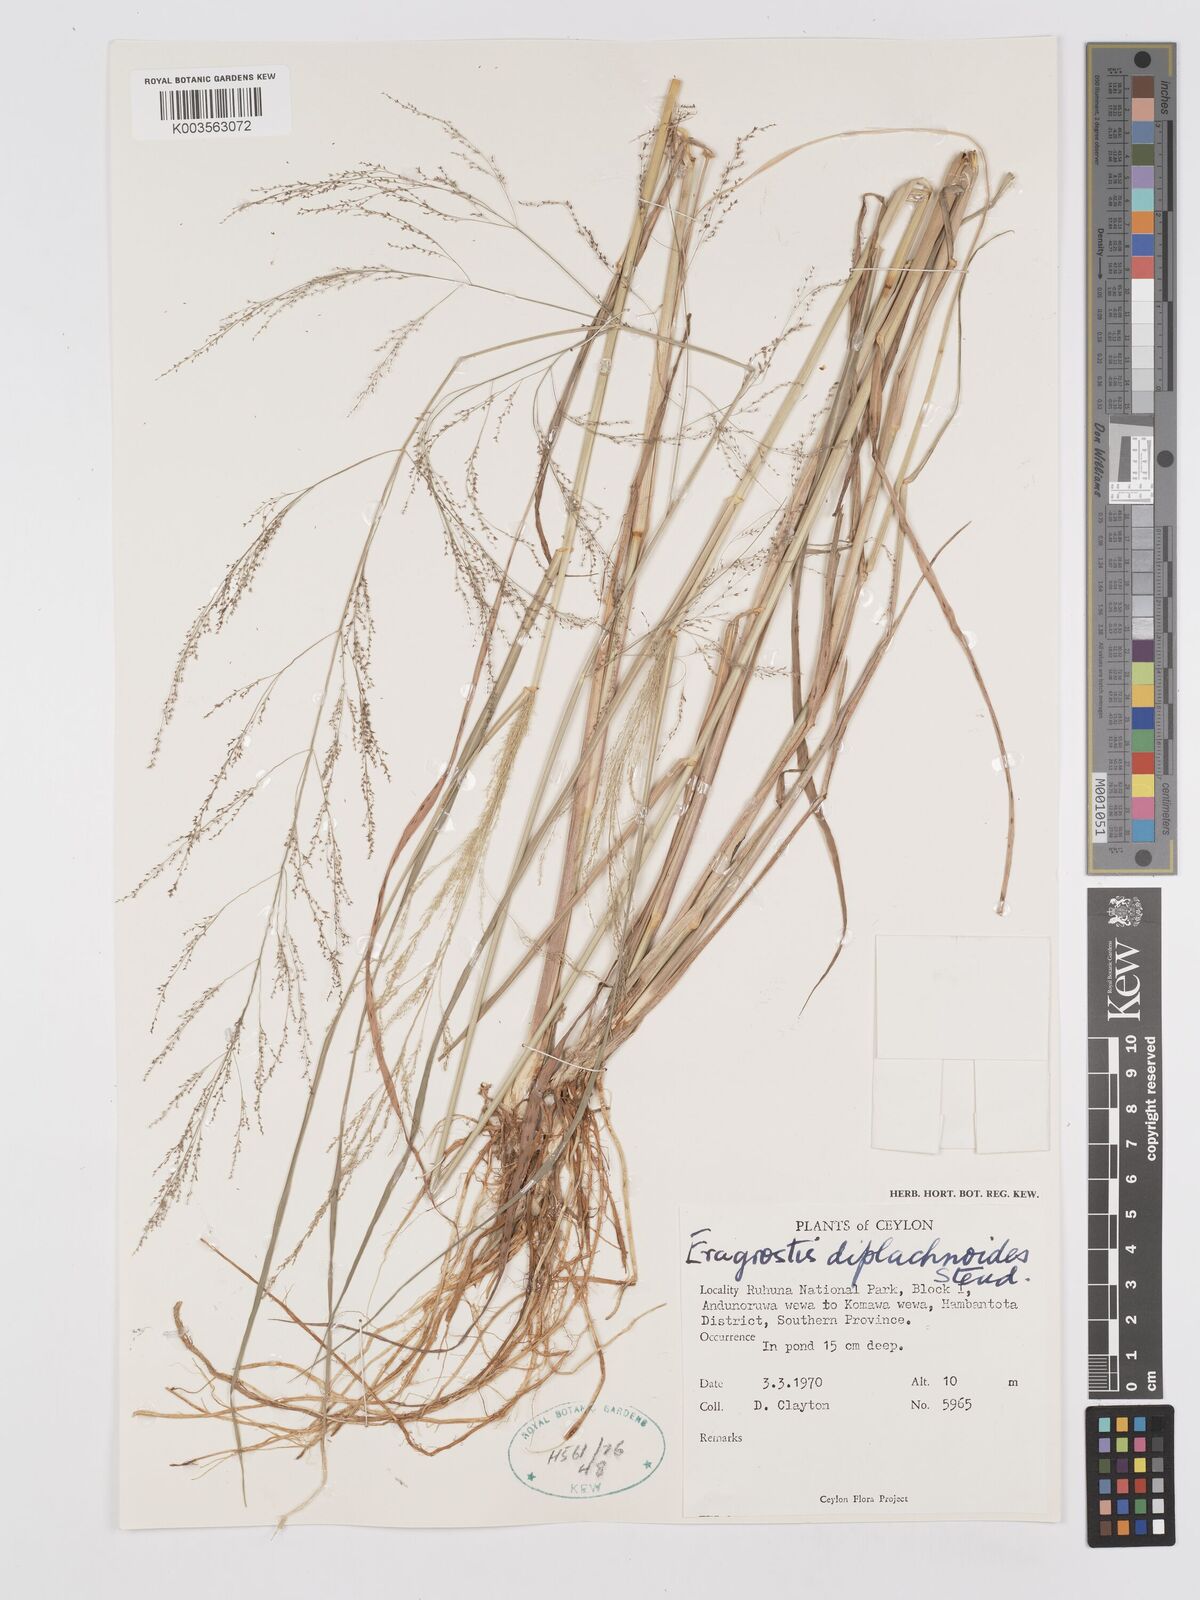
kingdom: Plantae
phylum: Tracheophyta
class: Liliopsida
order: Poales
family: Poaceae
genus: Eragrostis
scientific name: Eragrostis japonica
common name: Pond lovegrass
